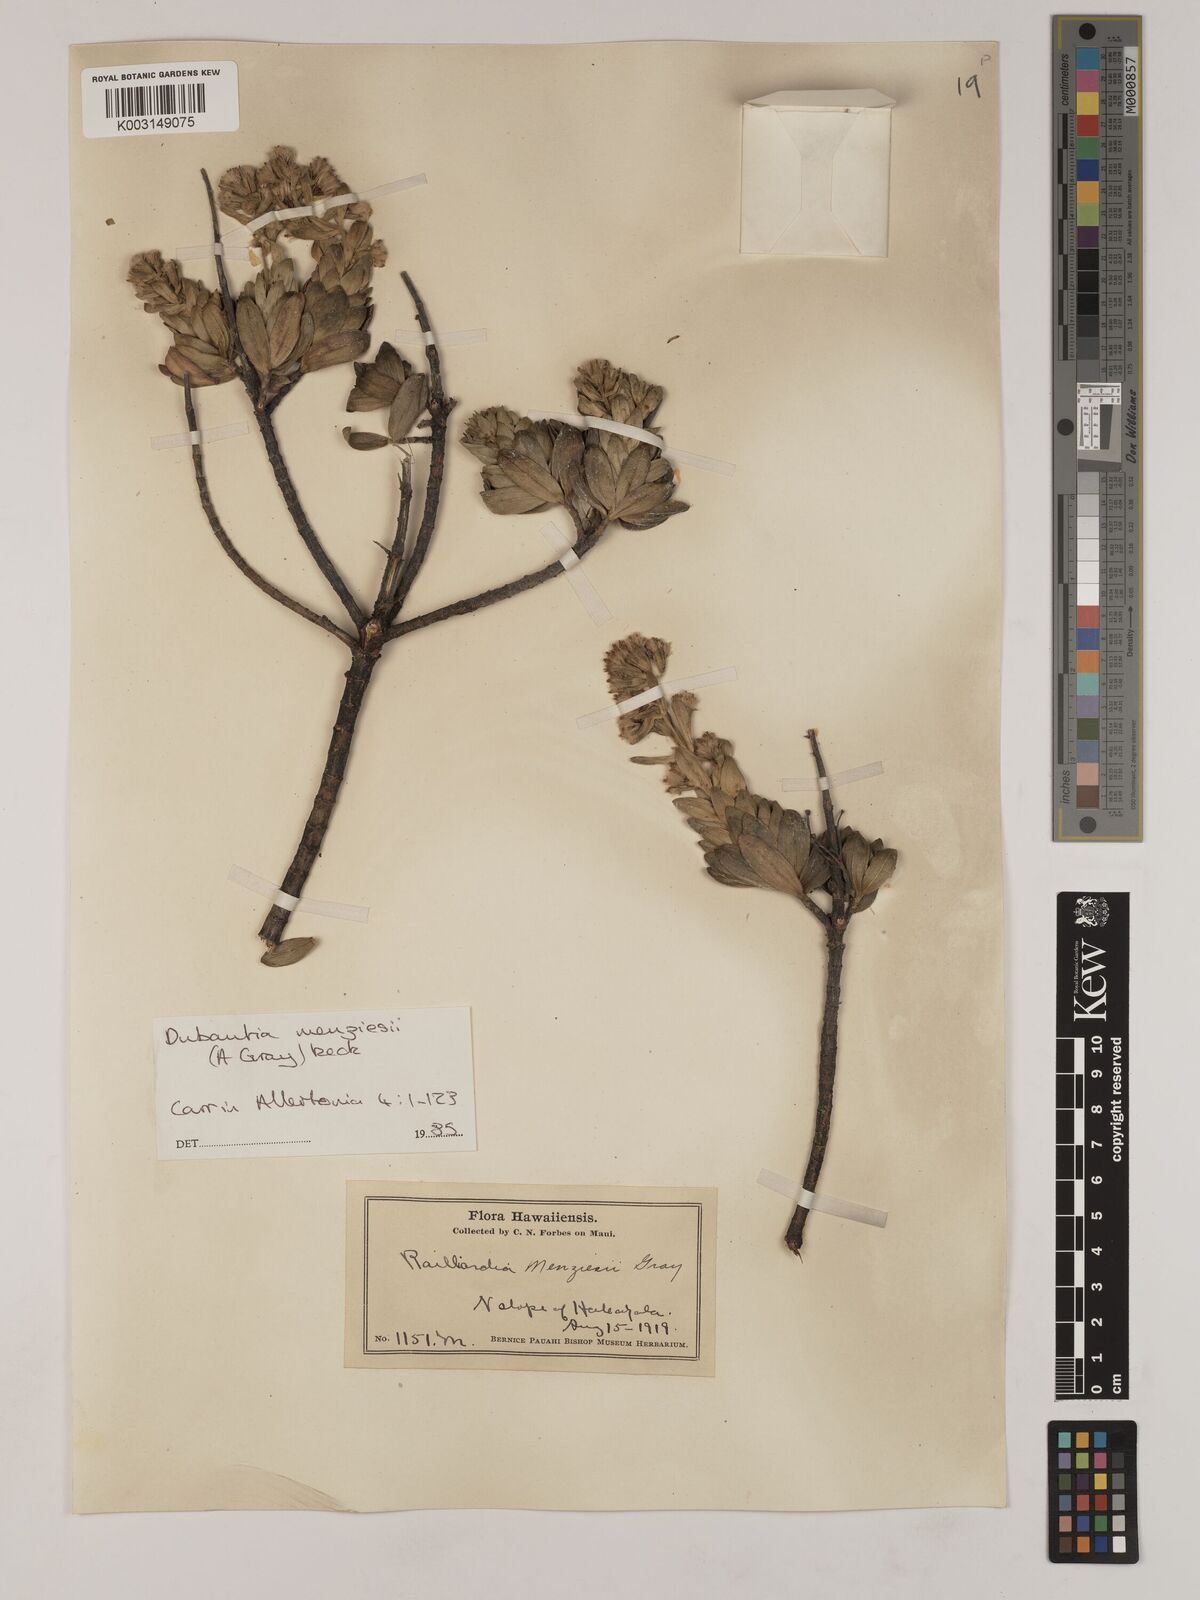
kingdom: Plantae
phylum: Tracheophyta
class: Magnoliopsida
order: Asterales
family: Asteraceae
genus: Dubautia
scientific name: Dubautia menziesii
